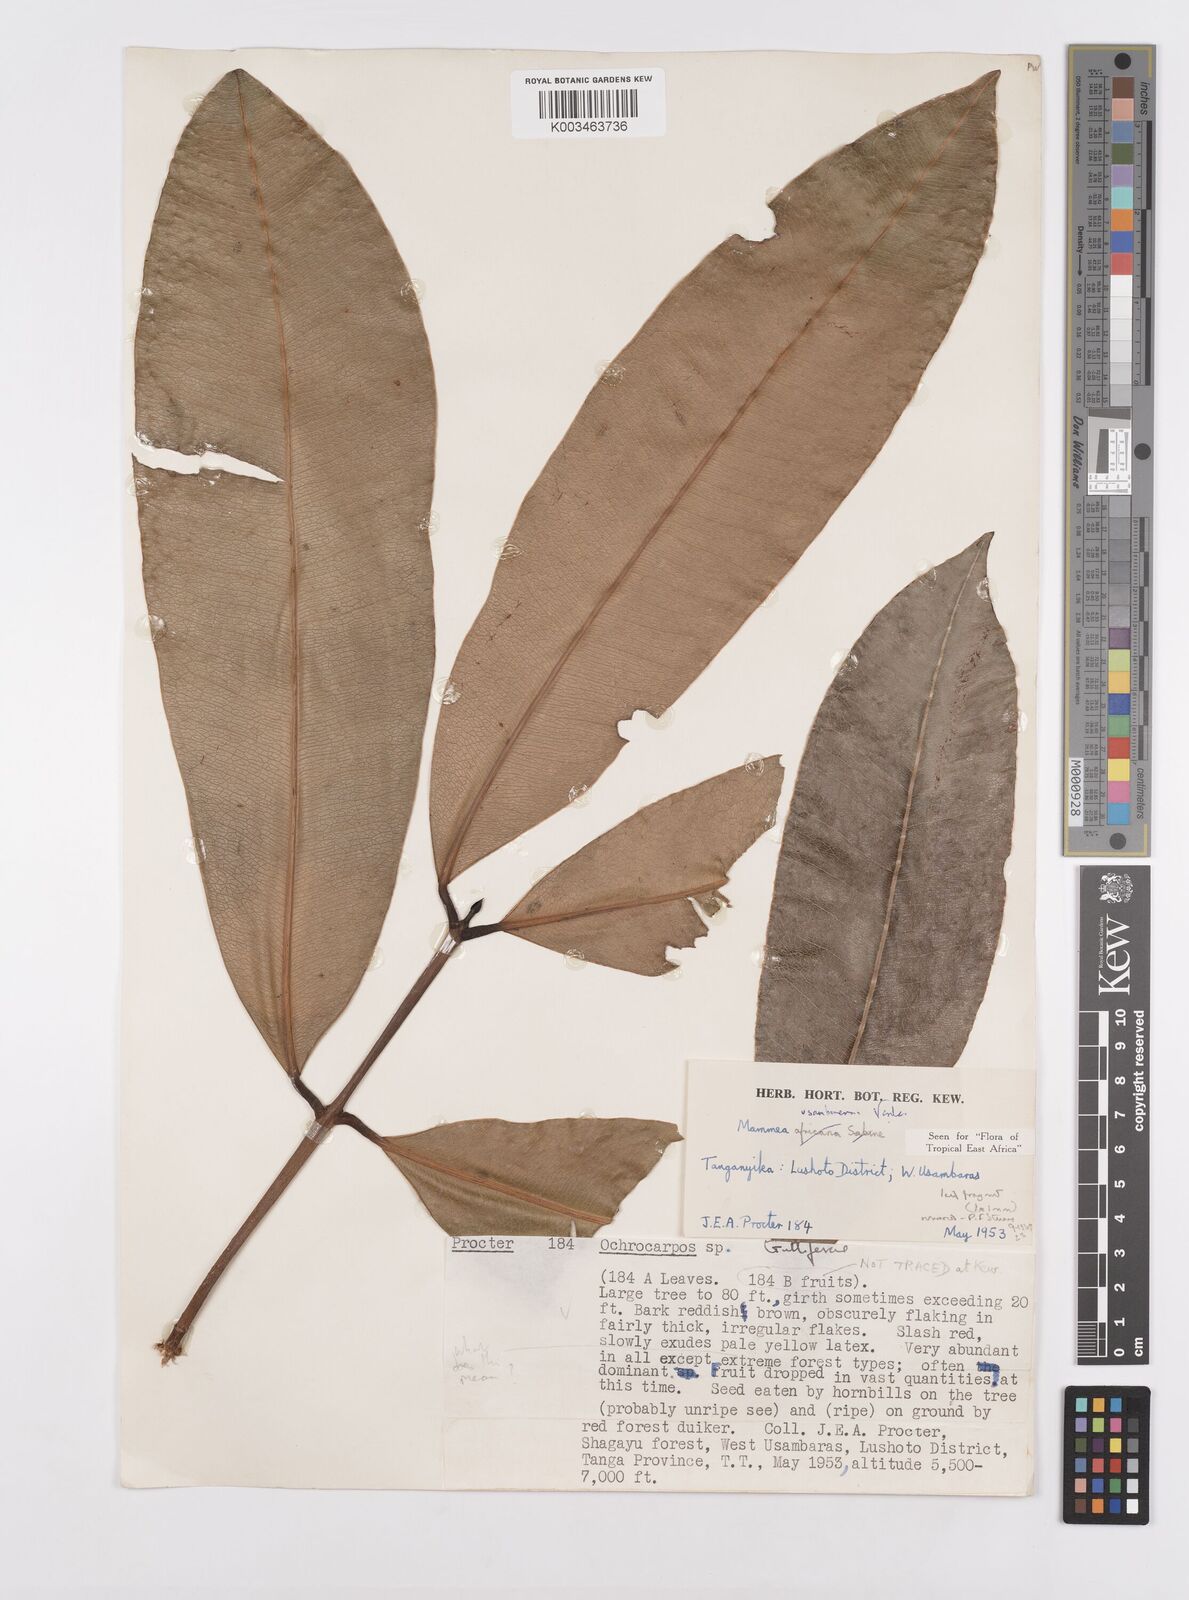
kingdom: Plantae
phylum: Tracheophyta
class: Magnoliopsida
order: Malpighiales
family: Calophyllaceae
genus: Mammea
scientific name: Mammea africana
